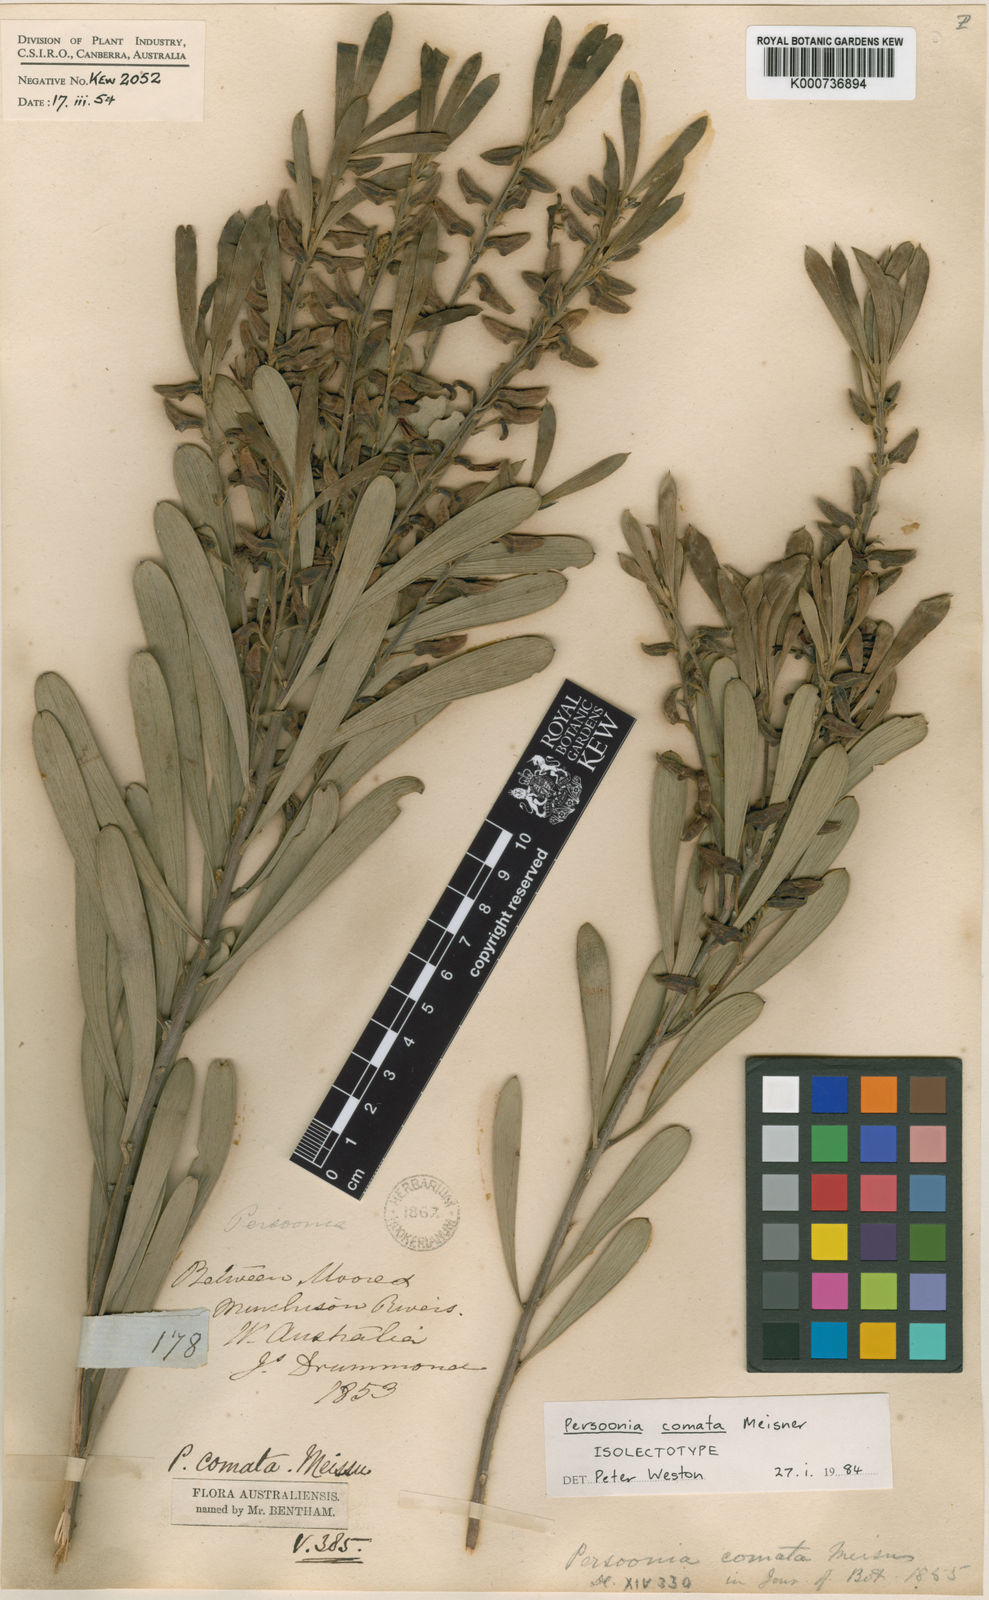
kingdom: Plantae
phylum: Tracheophyta
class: Magnoliopsida
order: Proteales
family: Proteaceae
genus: Persoonia
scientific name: Persoonia comata
